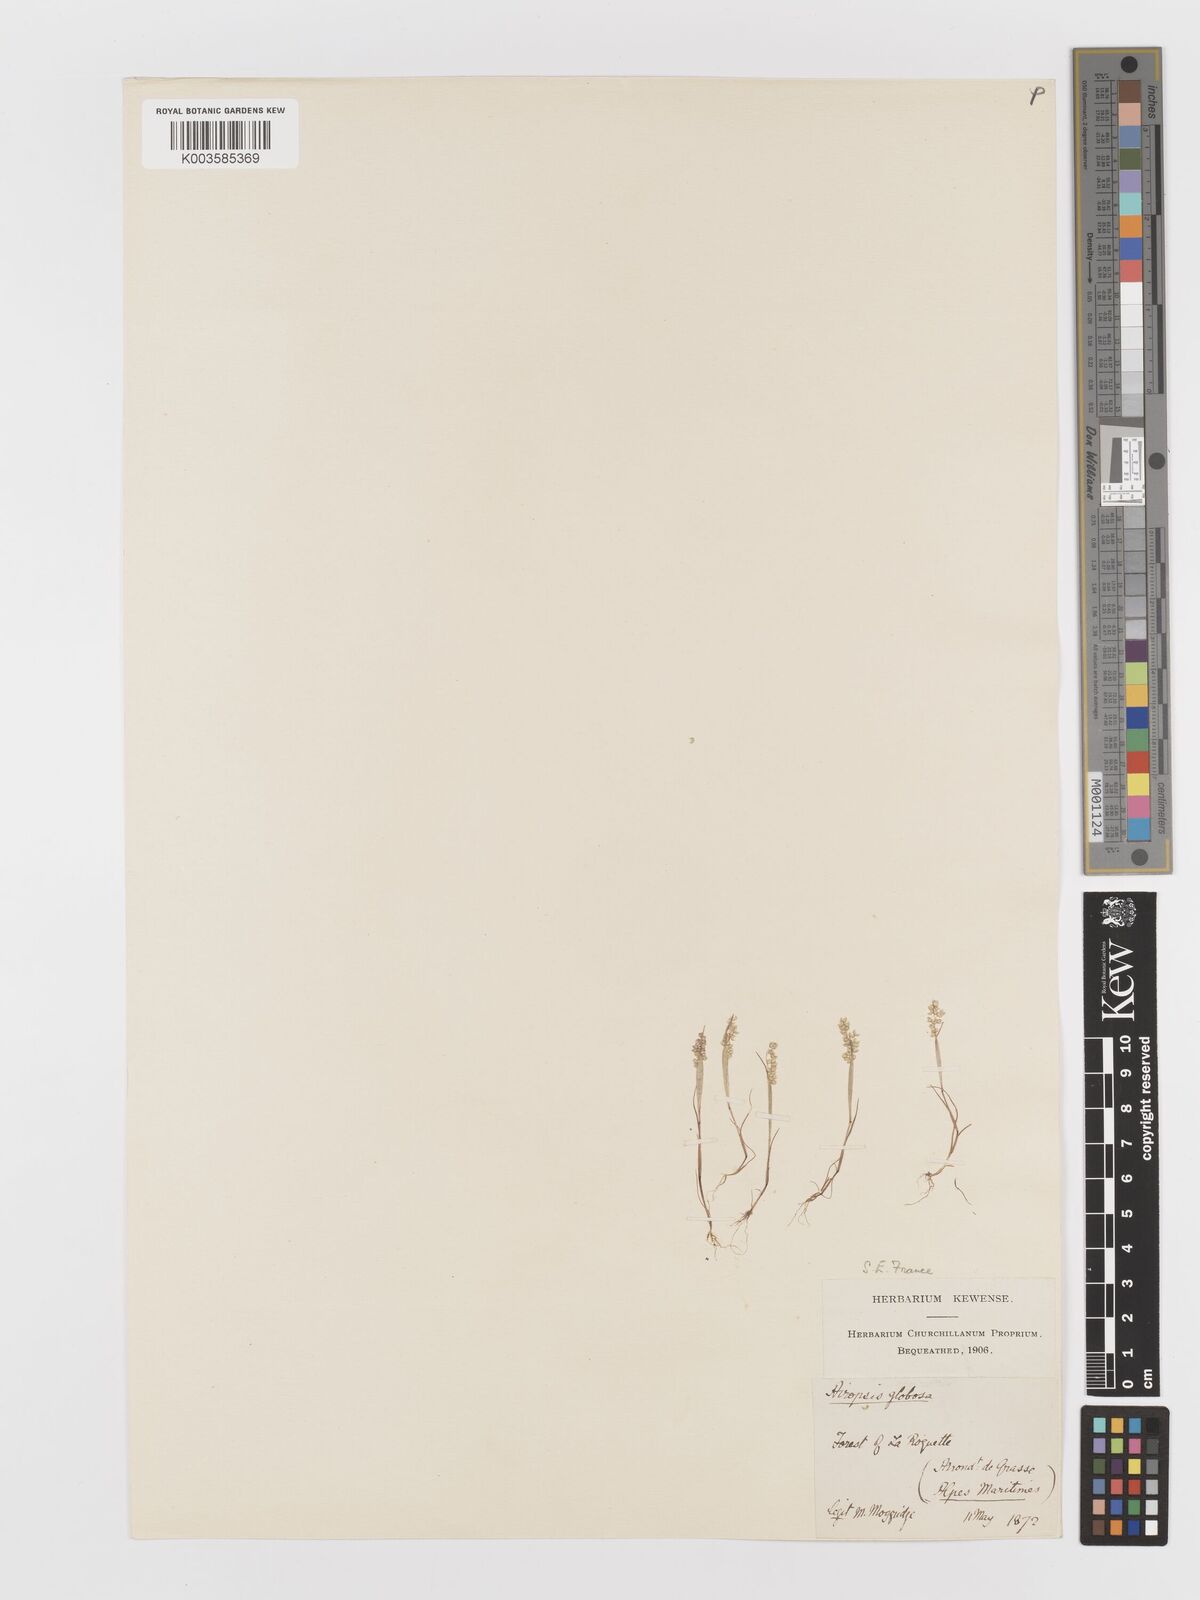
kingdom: Plantae
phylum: Tracheophyta
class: Liliopsida
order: Poales
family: Poaceae
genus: Airopsis
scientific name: Airopsis tenella
